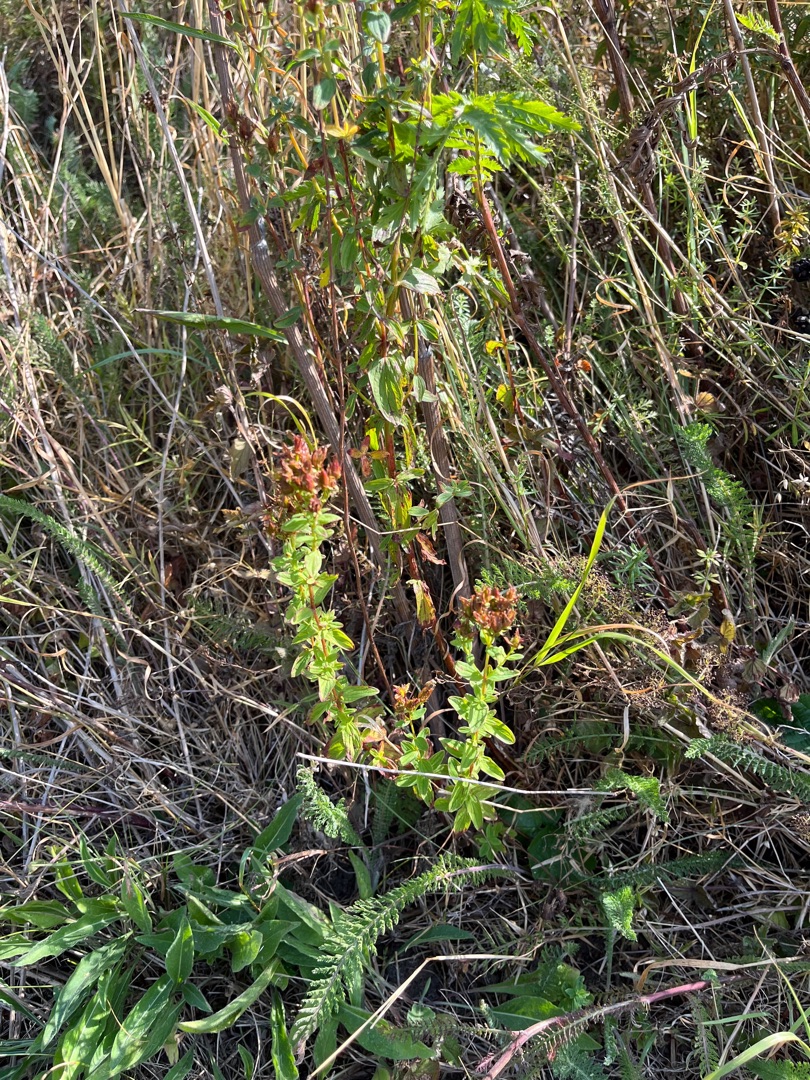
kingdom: Plantae
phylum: Tracheophyta
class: Magnoliopsida
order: Malpighiales
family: Hypericaceae
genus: Hypericum
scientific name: Hypericum maculatum
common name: Kantet perikon
